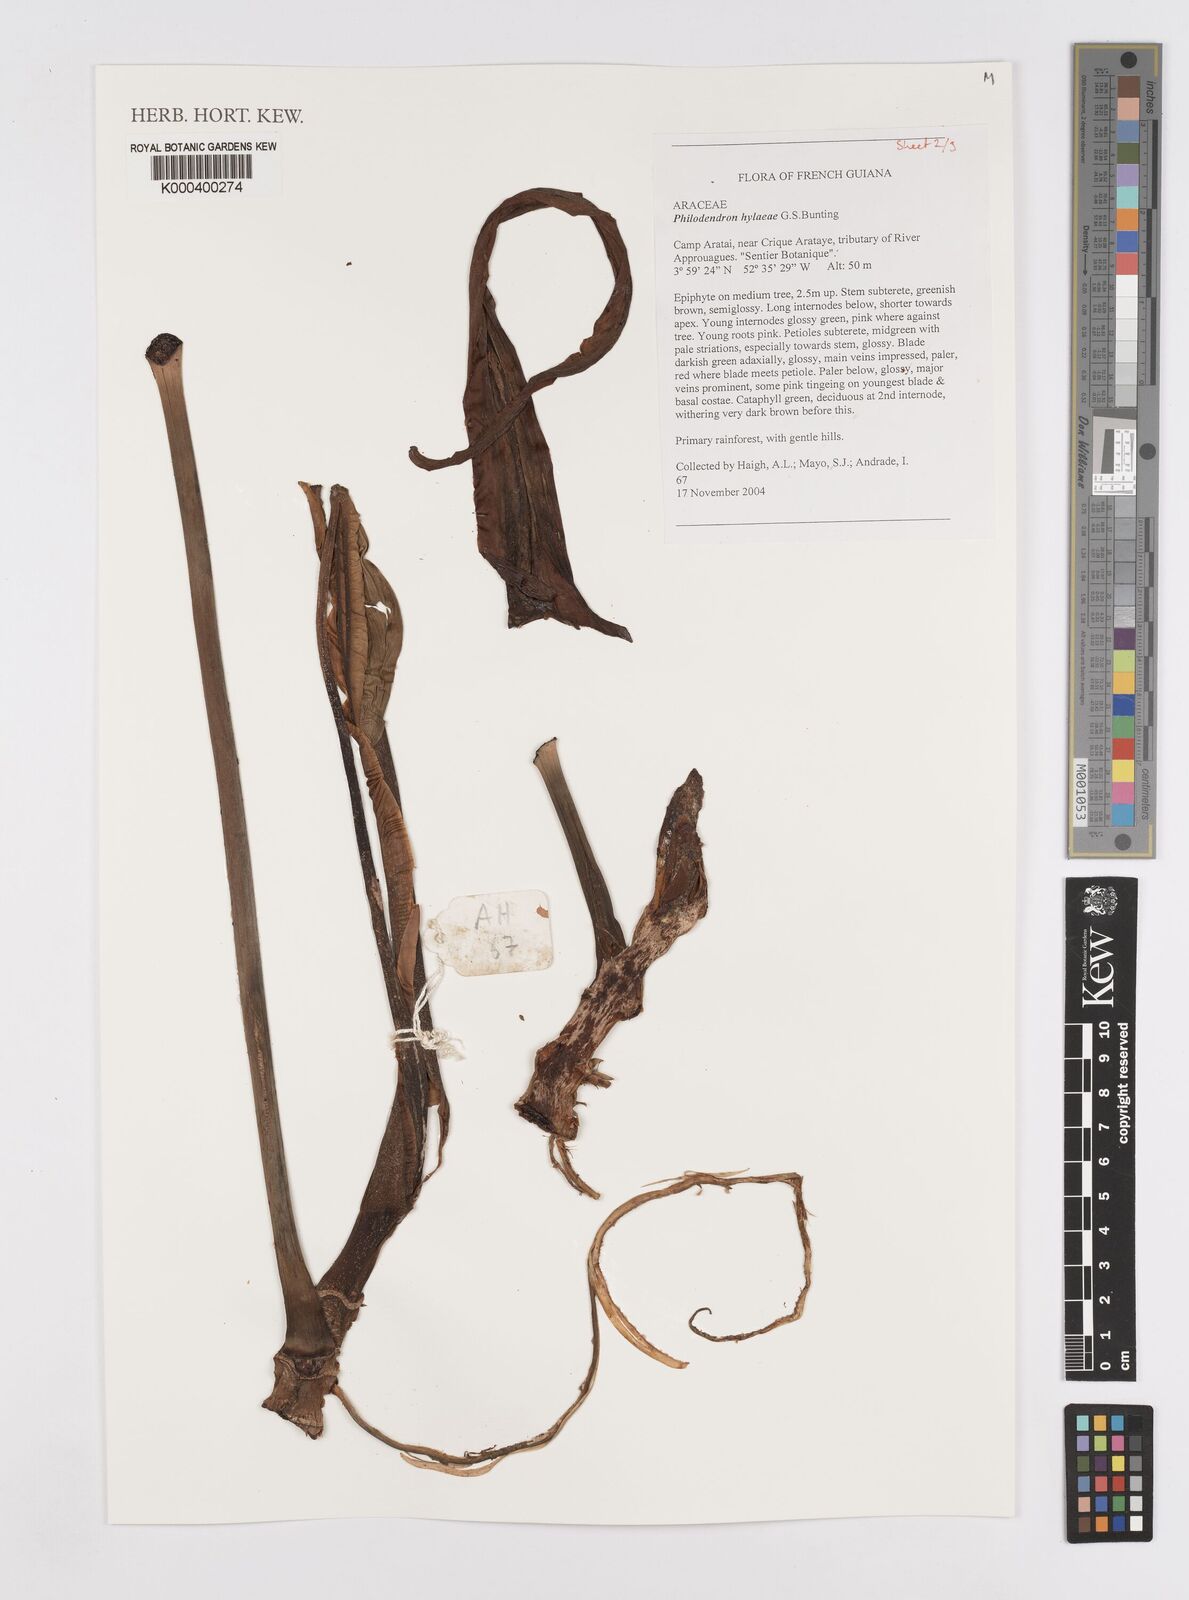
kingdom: Plantae
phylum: Tracheophyta
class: Liliopsida
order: Alismatales
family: Araceae
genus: Philodendron
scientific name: Philodendron hylaeae
